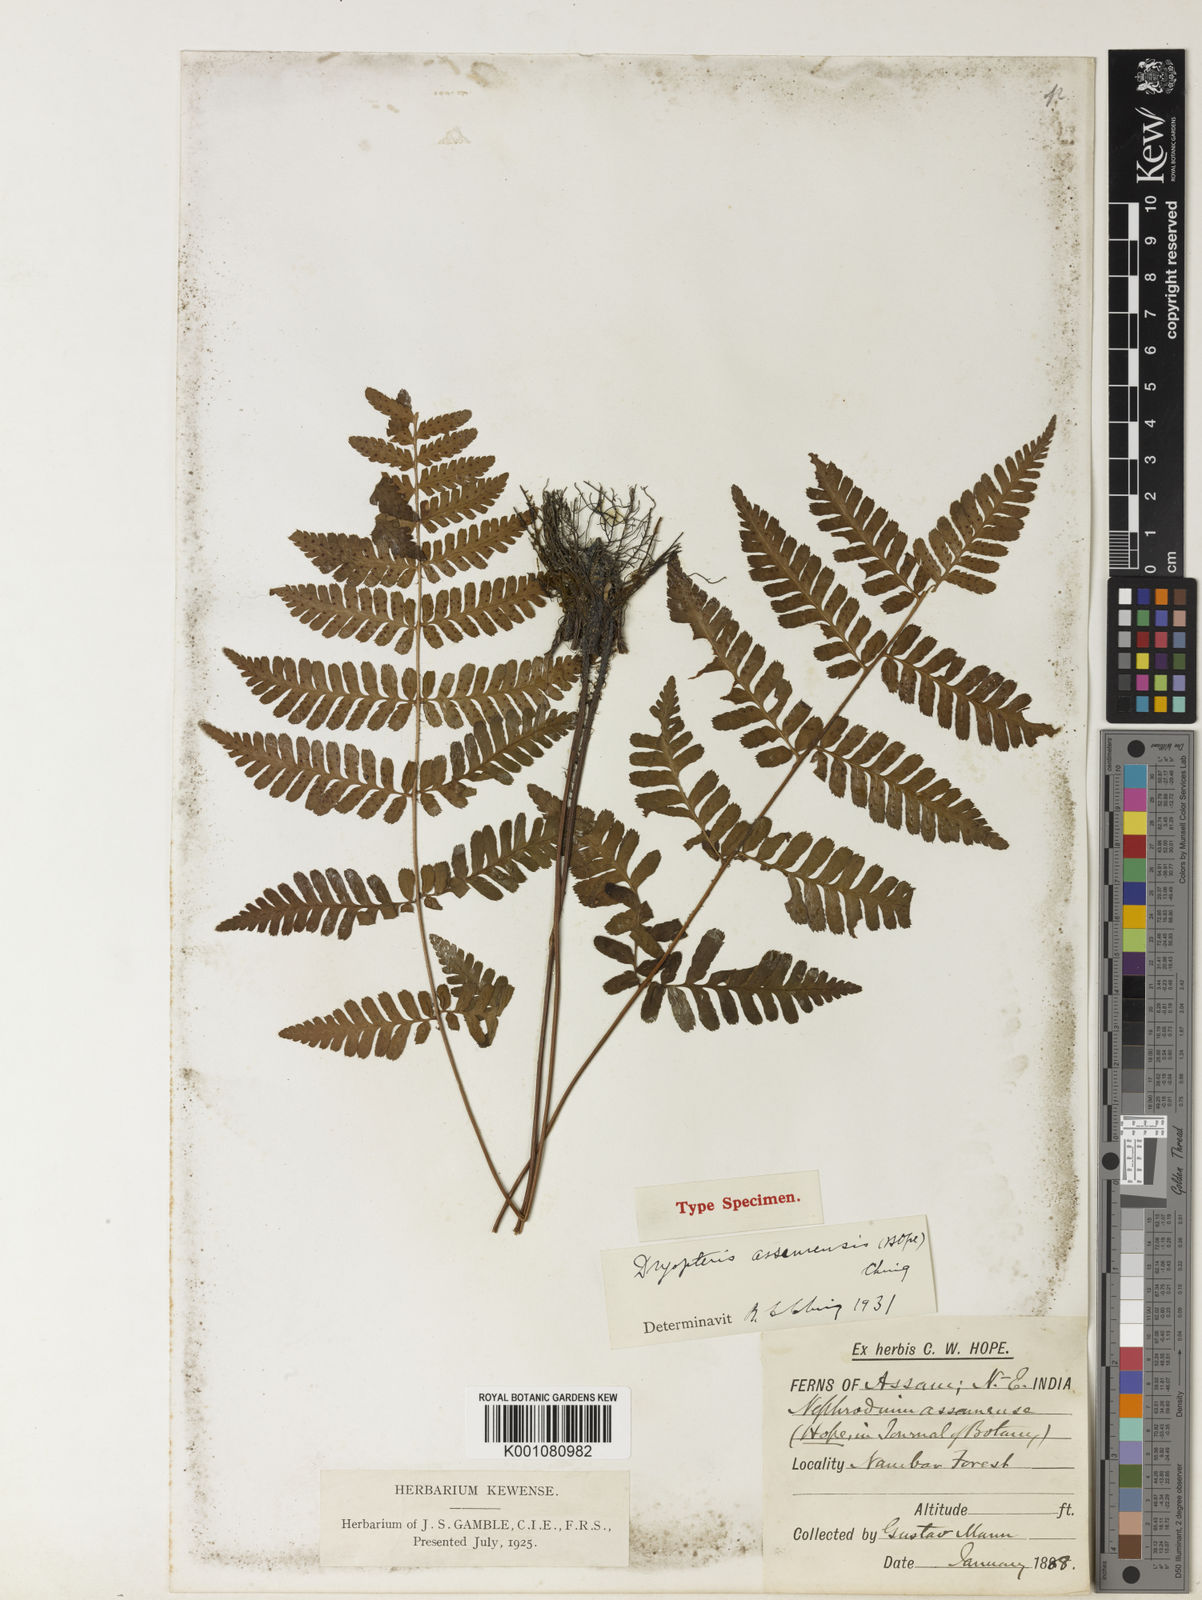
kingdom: Plantae
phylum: Tracheophyta
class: Polypodiopsida
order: Polypodiales
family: Dryopteridaceae
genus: Dryopteris
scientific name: Dryopteris assamensis
